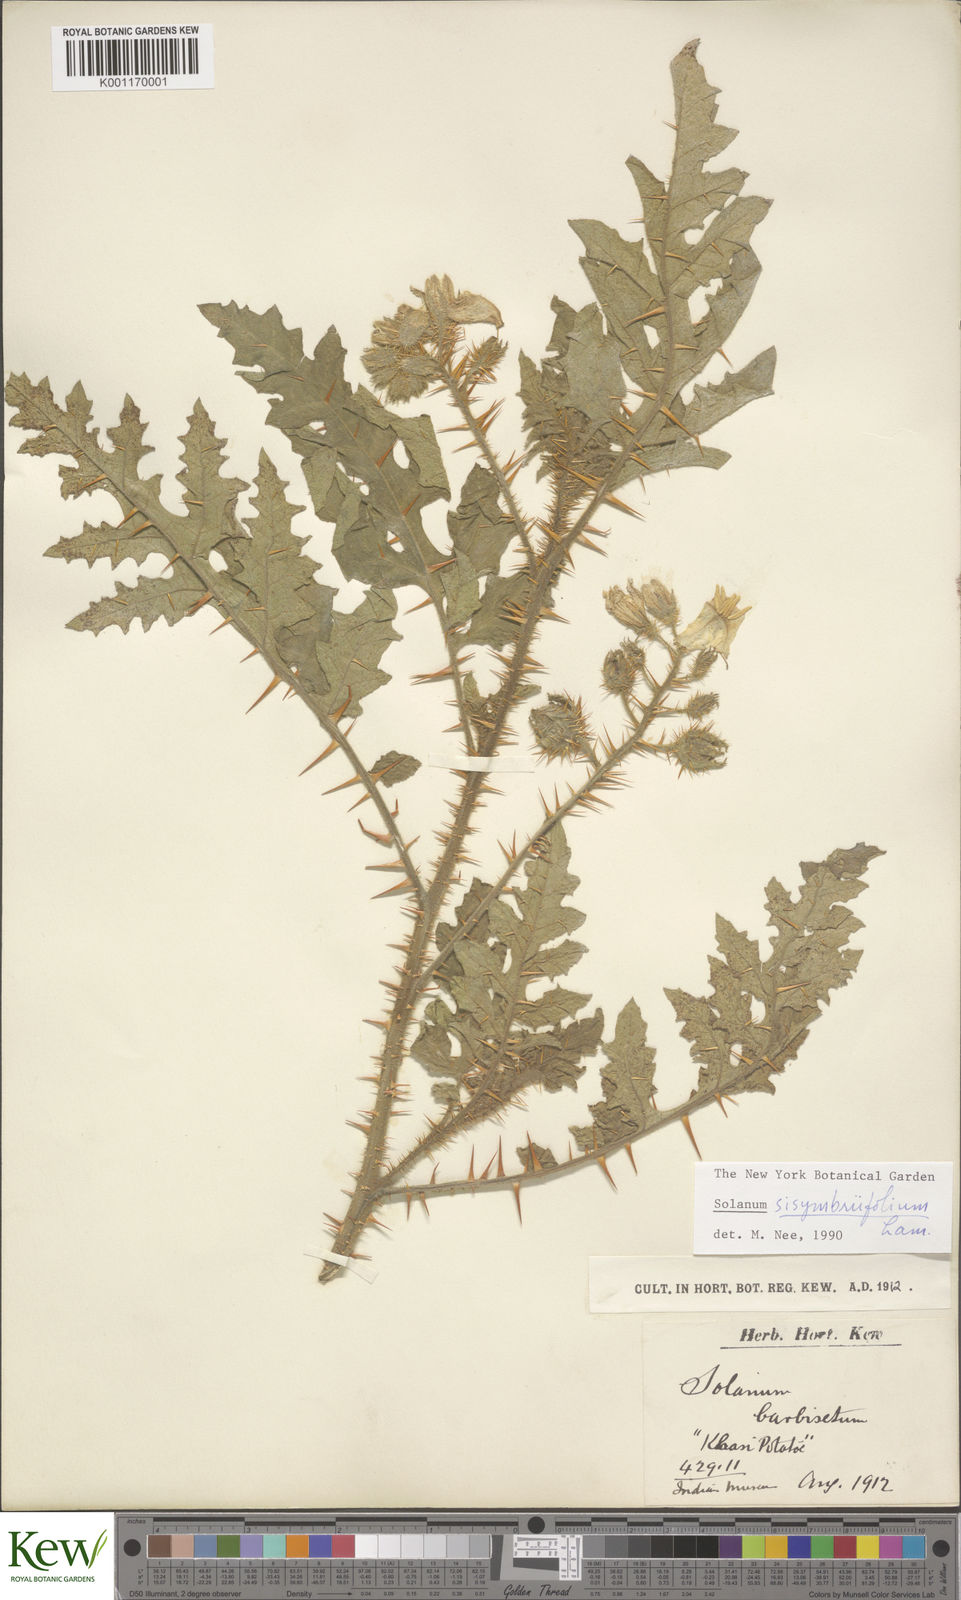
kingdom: Plantae
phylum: Tracheophyta
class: Magnoliopsida
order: Solanales
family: Solanaceae
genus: Solanum
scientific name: Solanum sisymbriifolium
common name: Red buffalo-bur
